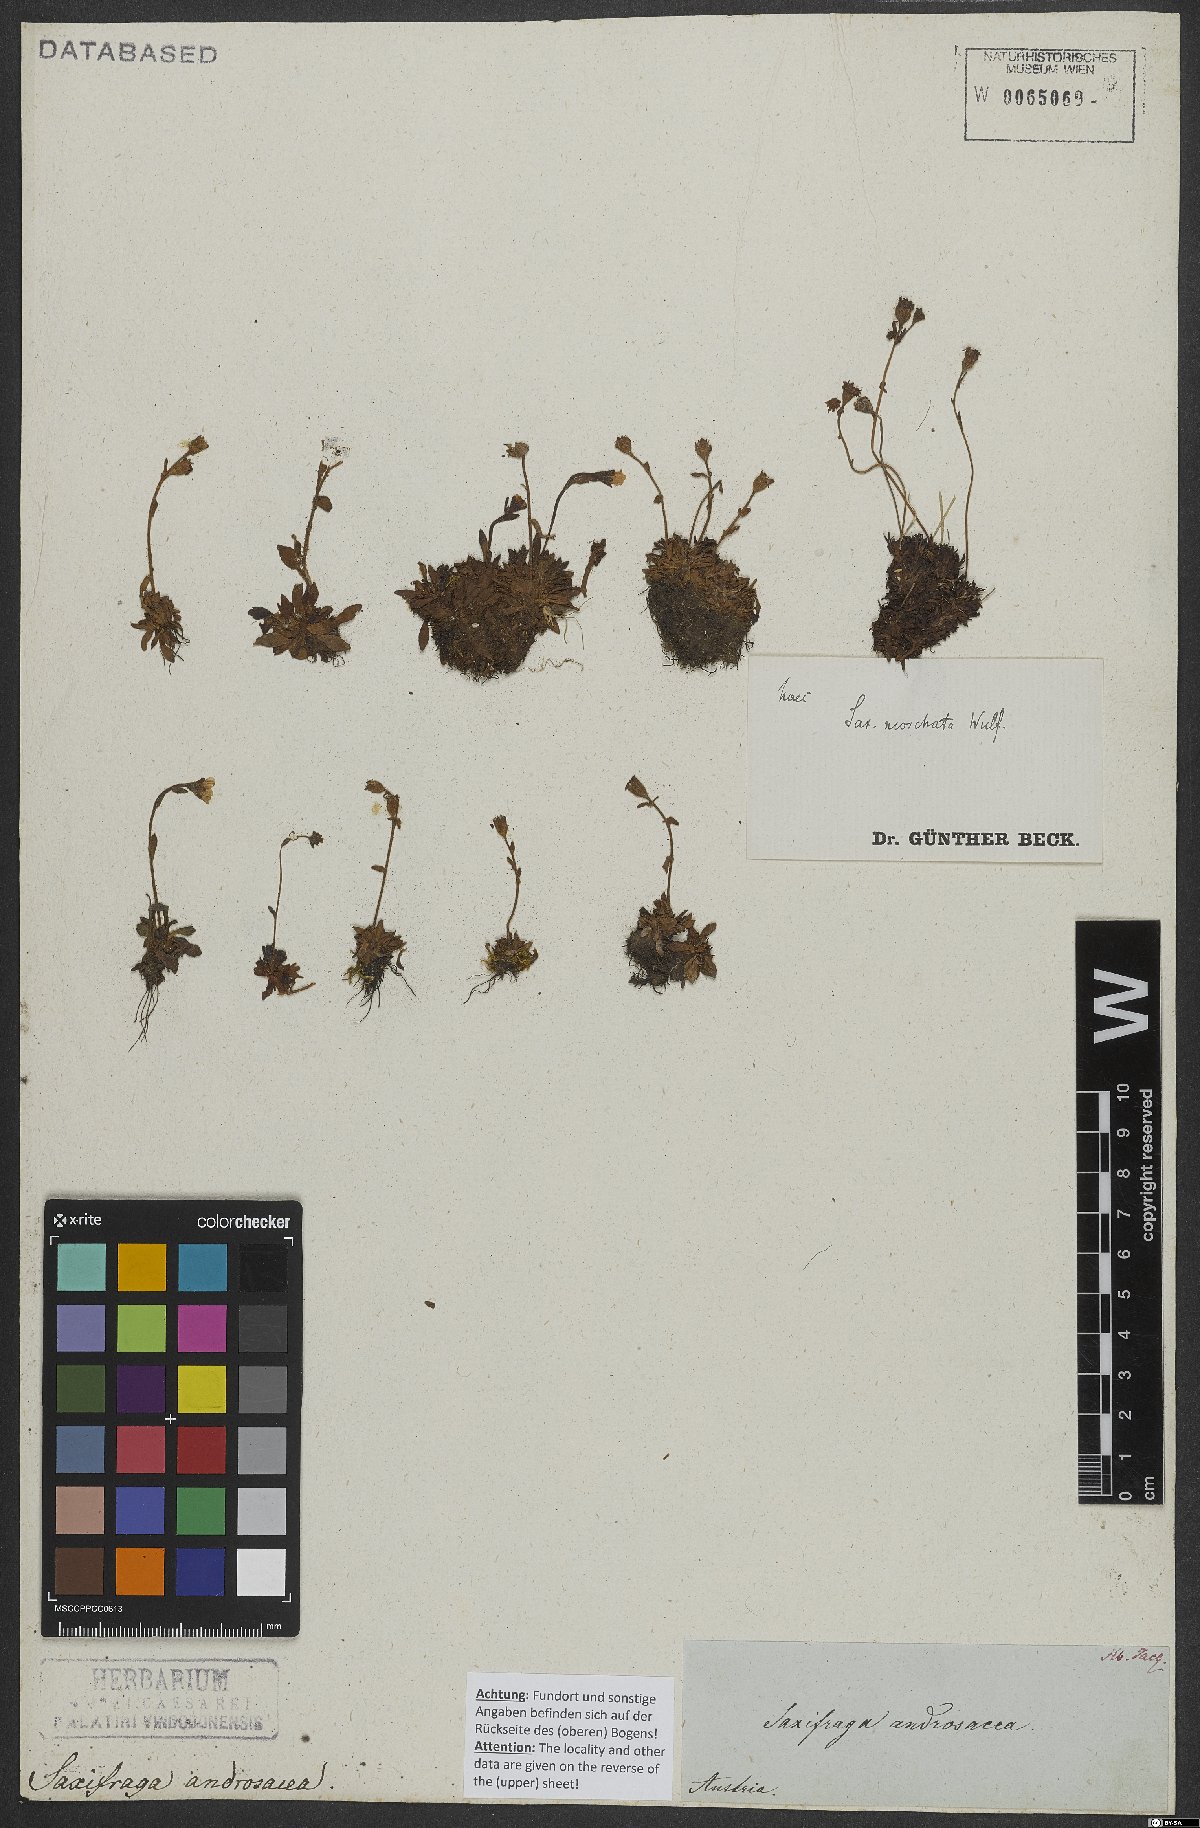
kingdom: Plantae
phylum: Tracheophyta
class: Magnoliopsida
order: Saxifragales
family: Saxifragaceae
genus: Saxifraga
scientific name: Saxifraga moschata
